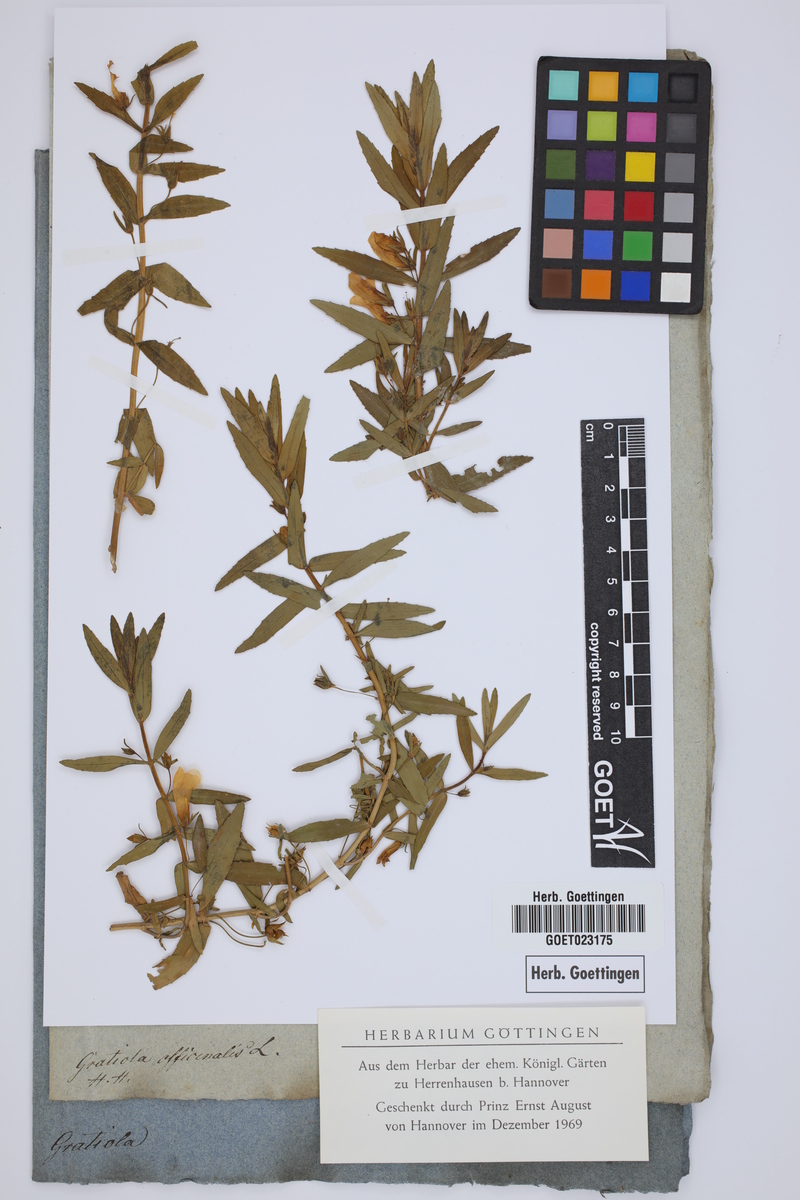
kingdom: Plantae
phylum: Tracheophyta
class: Magnoliopsida
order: Lamiales
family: Plantaginaceae
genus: Gratiola
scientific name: Gratiola officinalis
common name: Gratiola
